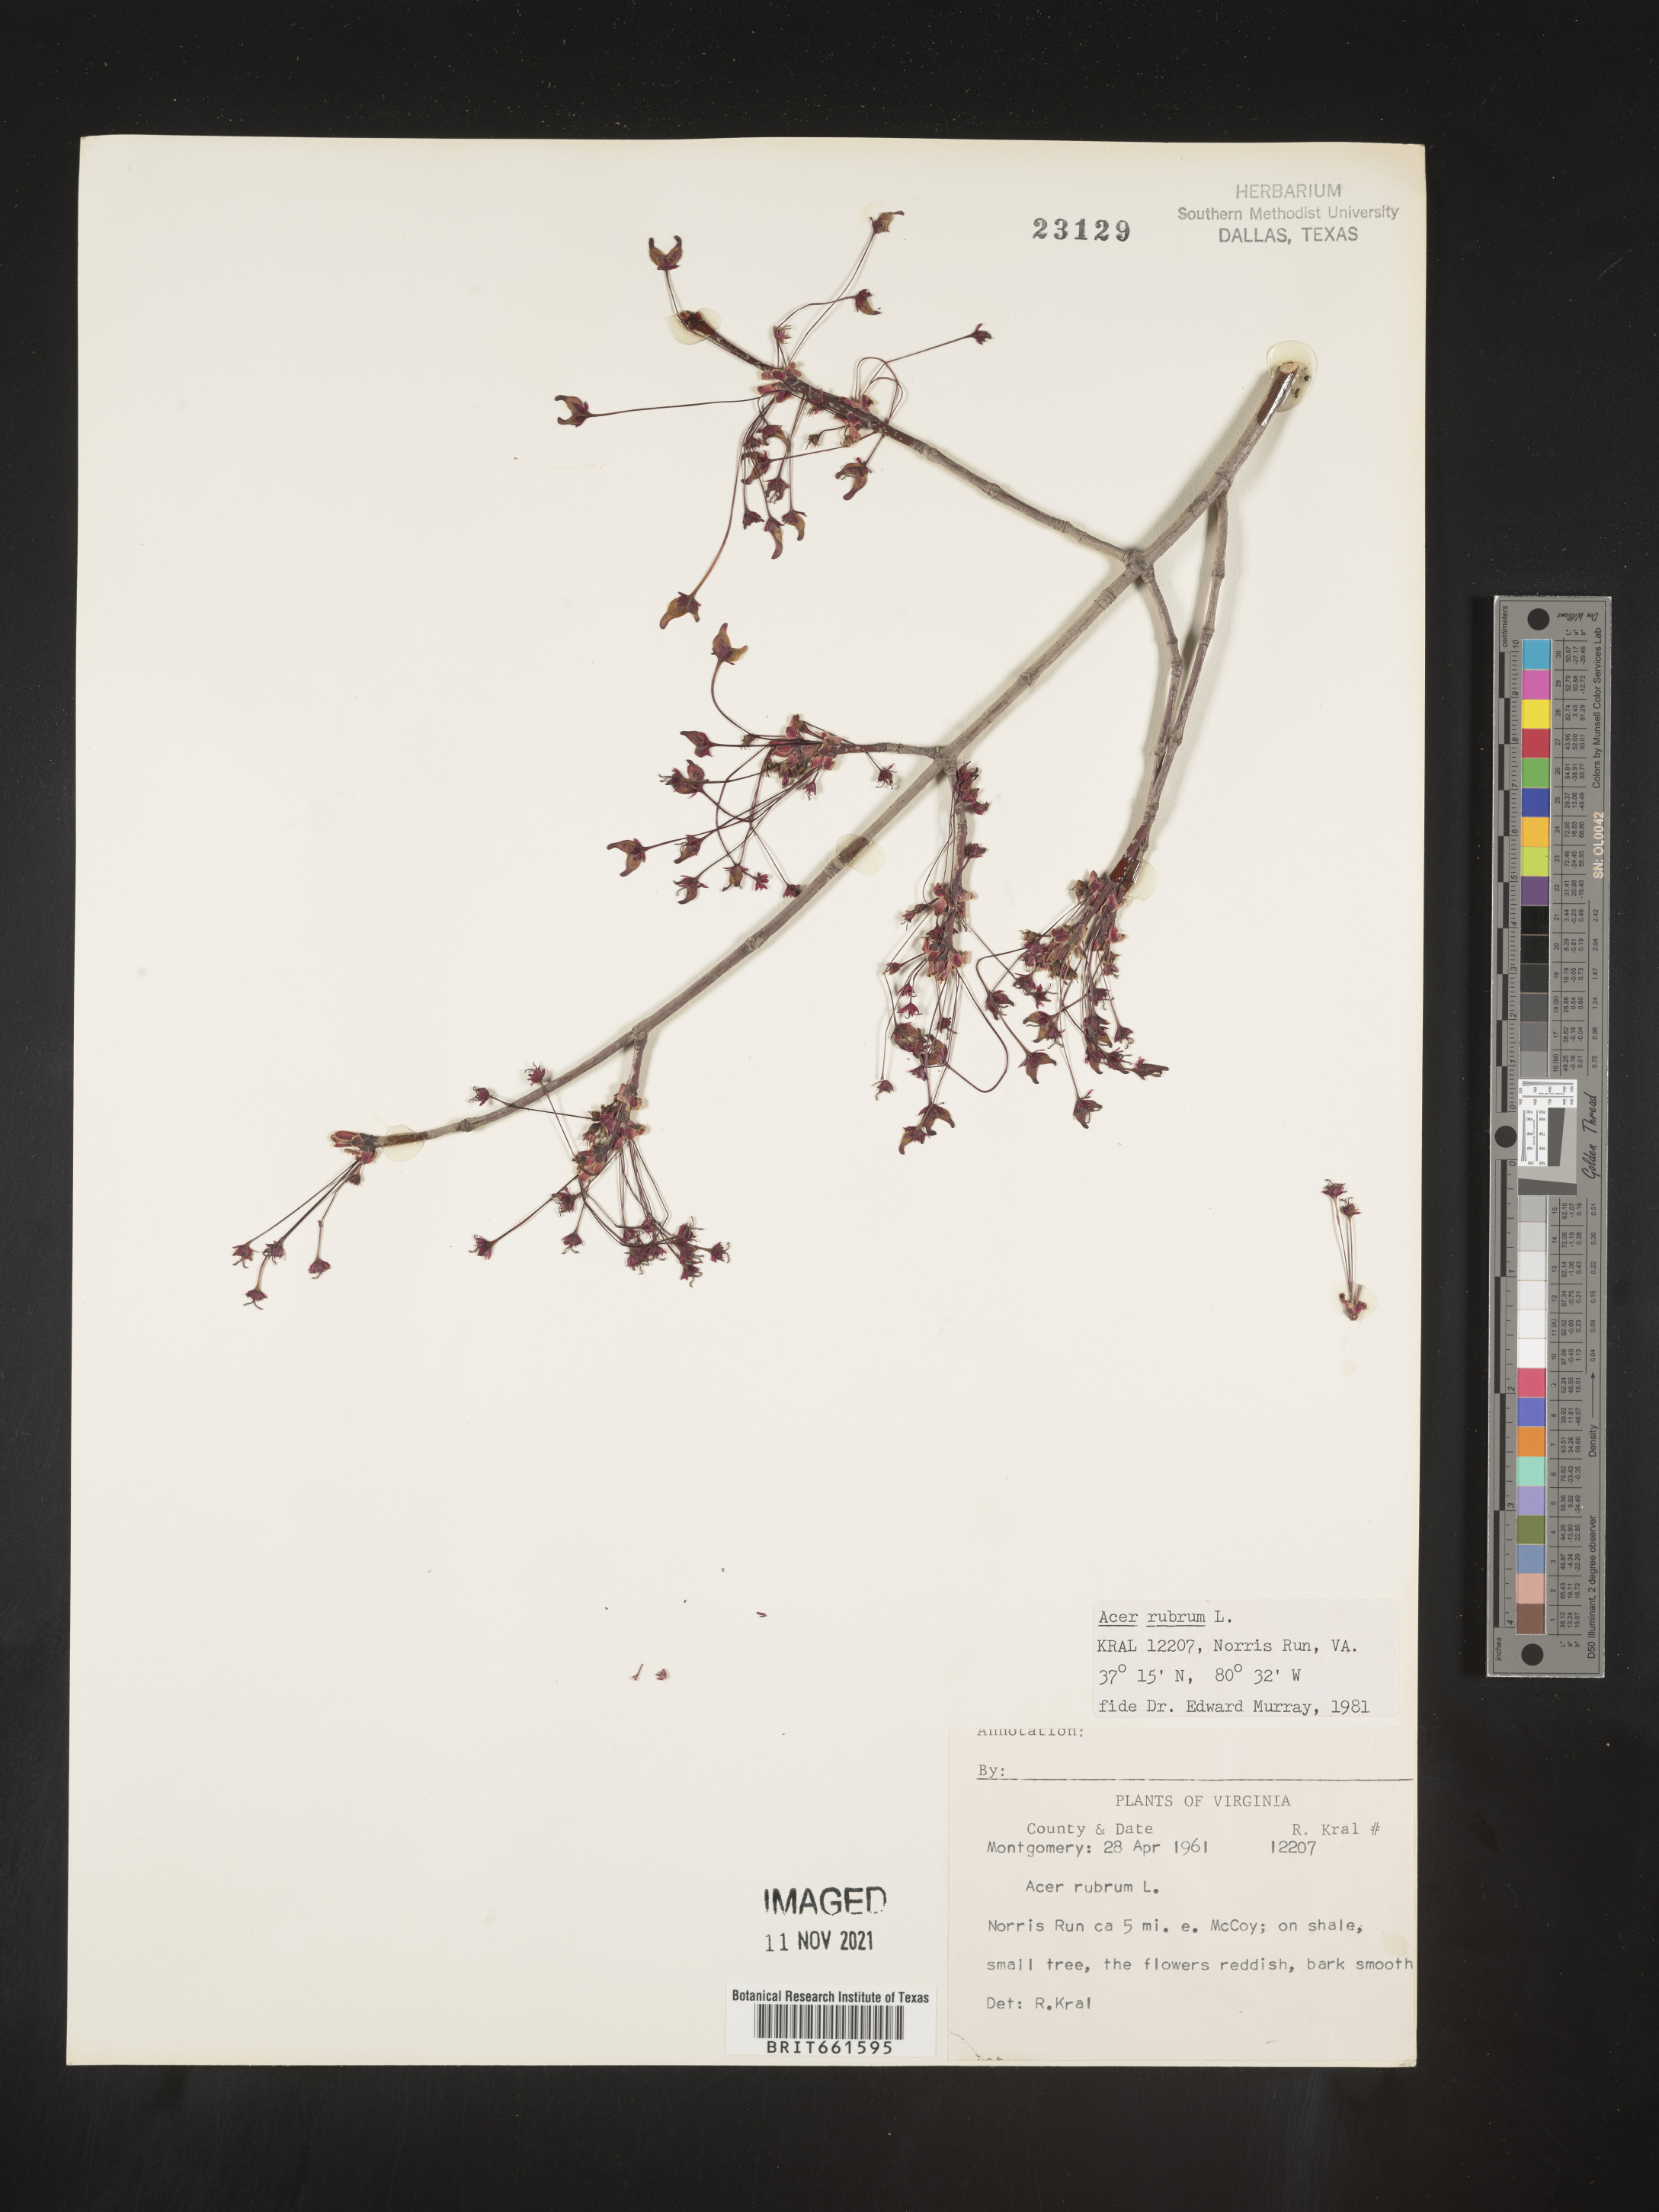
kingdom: Plantae
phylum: Tracheophyta
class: Magnoliopsida
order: Sapindales
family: Sapindaceae
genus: Acer
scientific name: Acer rubrum
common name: Red maple
